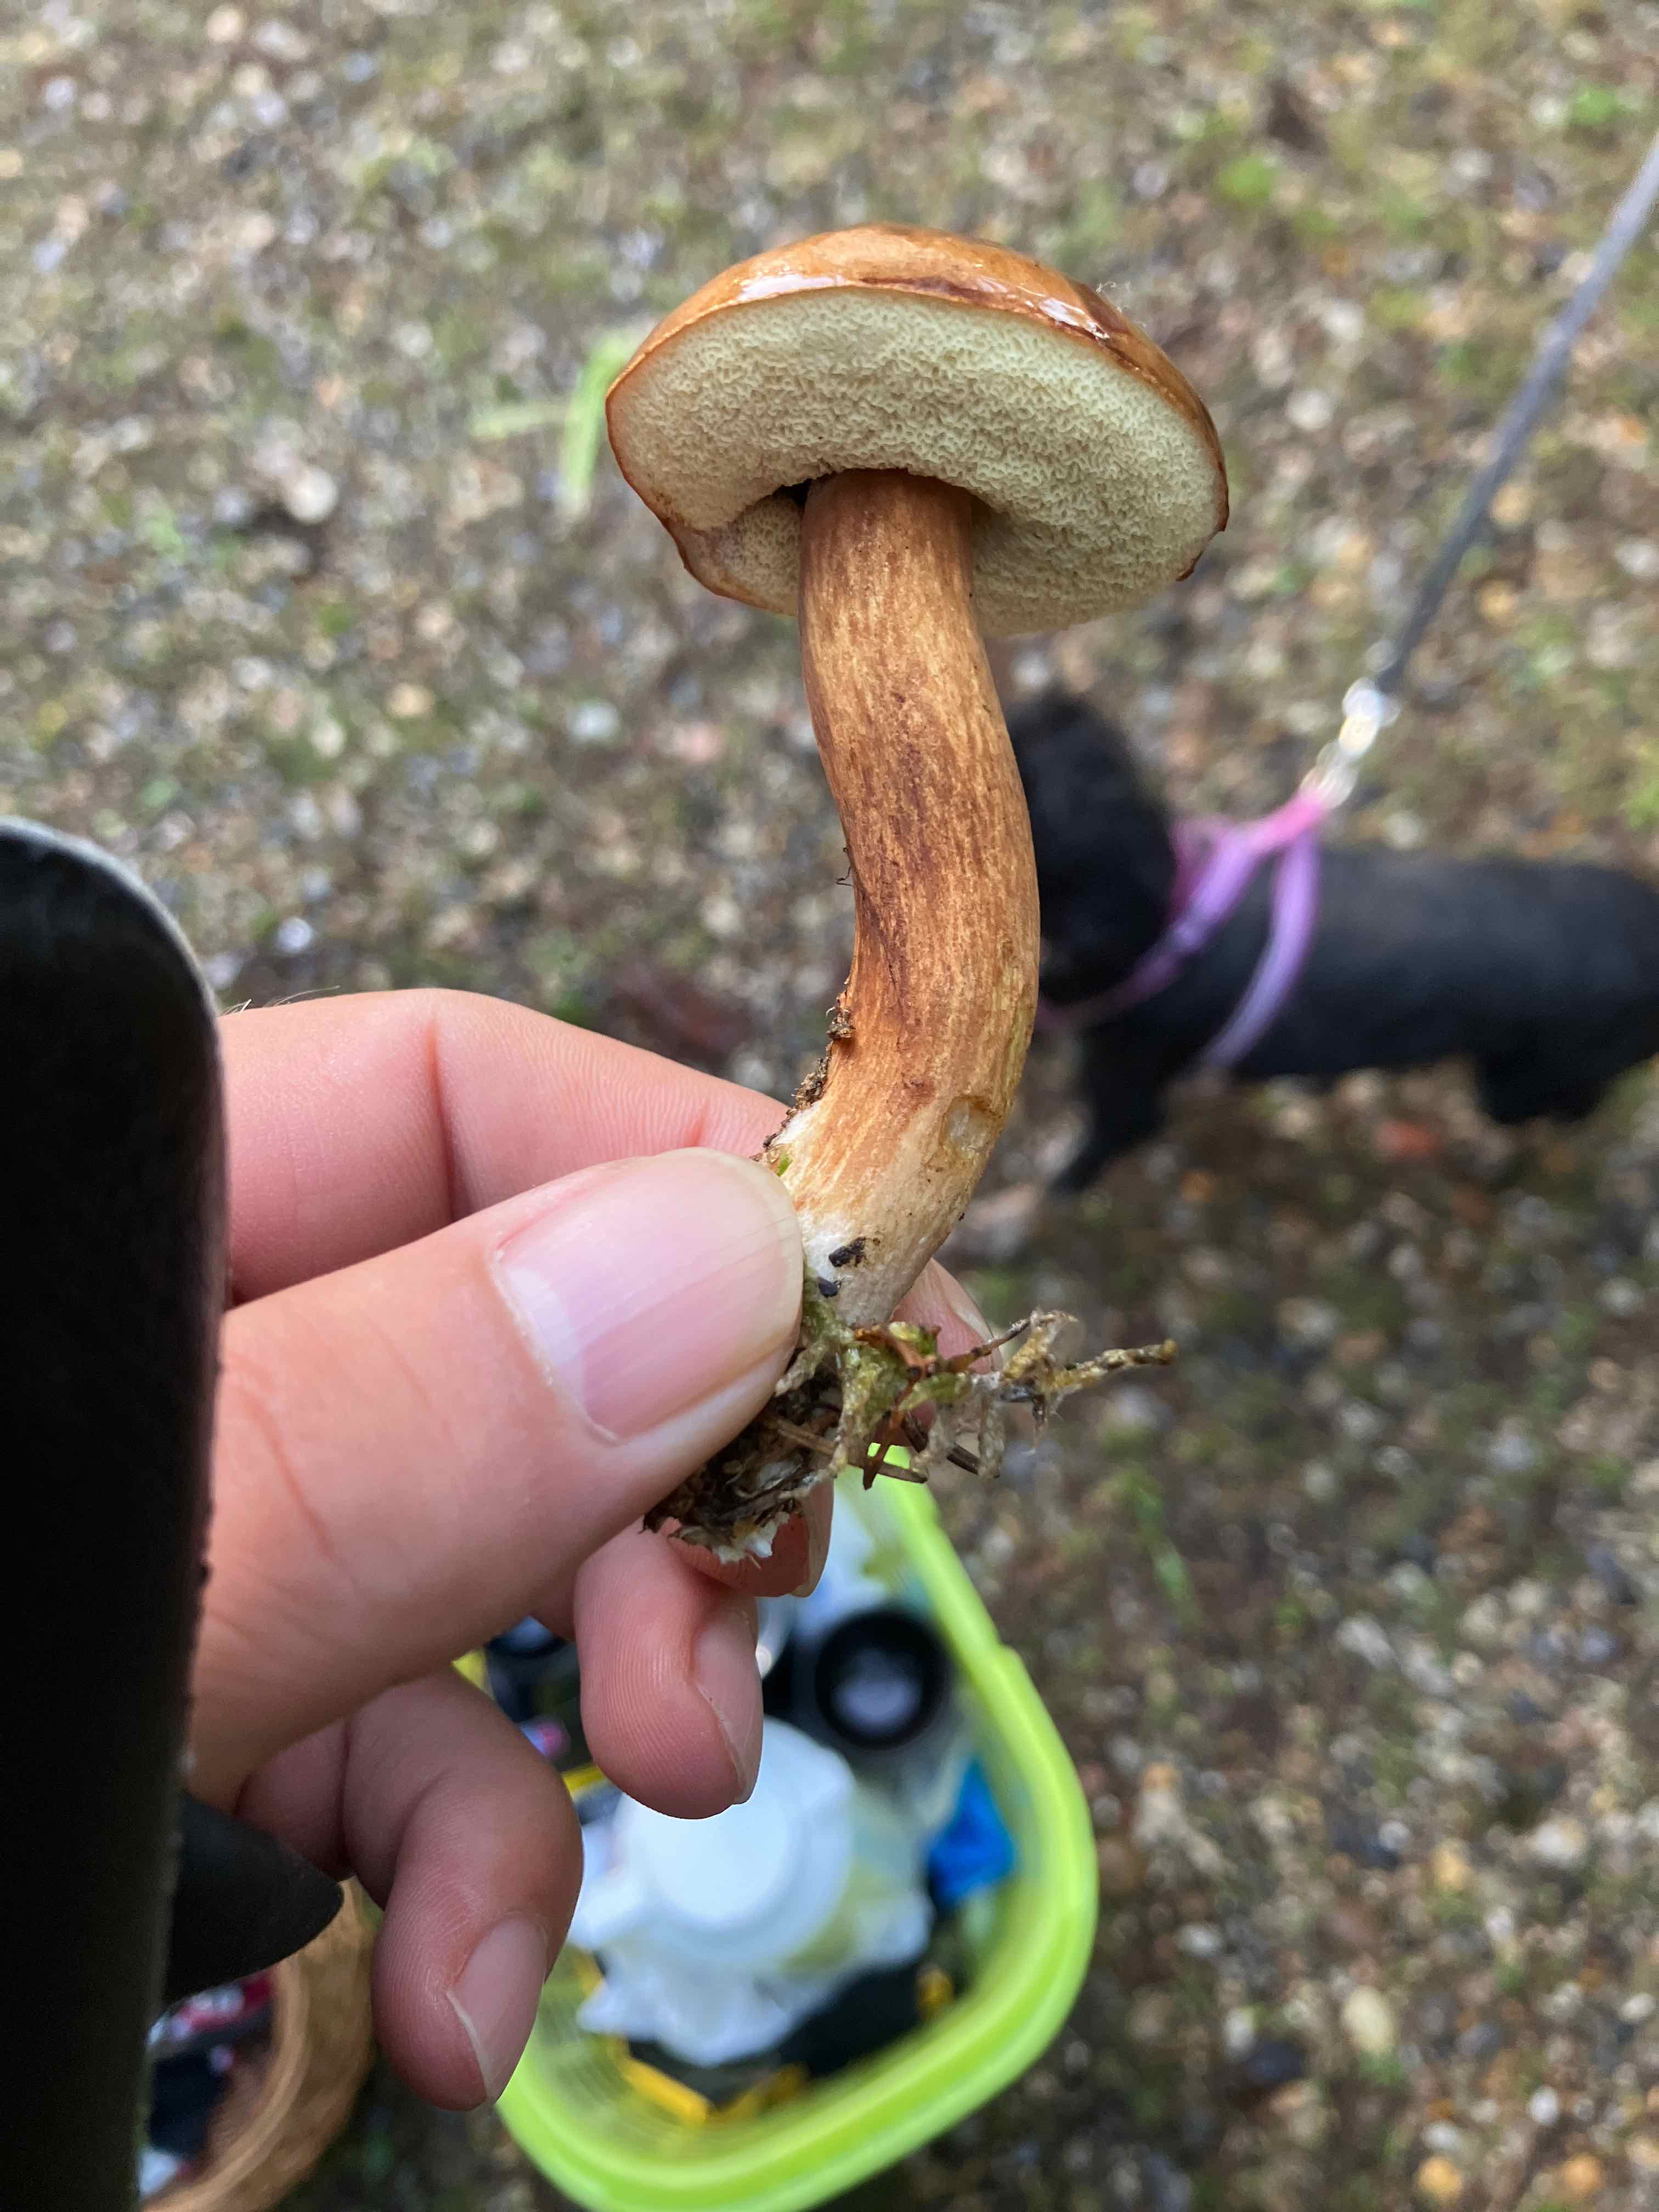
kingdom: Fungi
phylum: Basidiomycota
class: Agaricomycetes
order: Boletales
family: Boletaceae
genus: Imleria
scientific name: Imleria badia
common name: brunstokket rørhat
